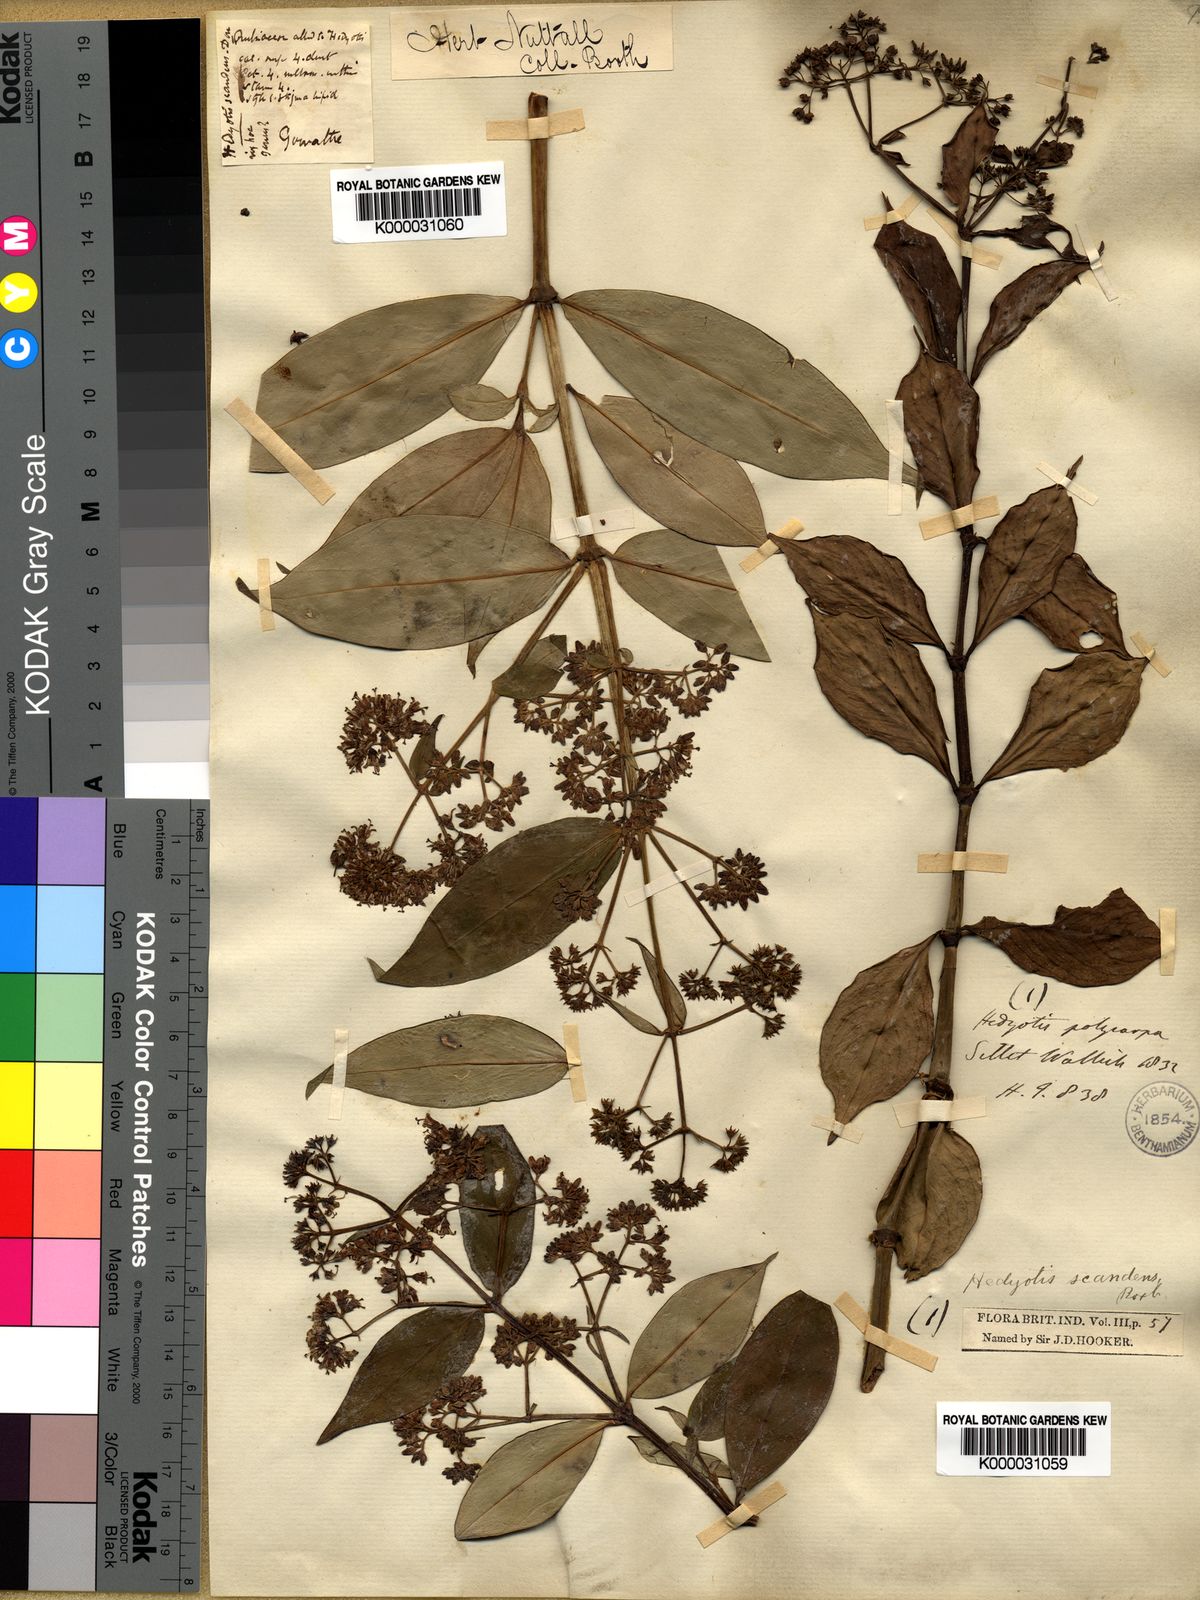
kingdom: Plantae
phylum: Tracheophyta
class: Magnoliopsida
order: Gentianales
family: Rubiaceae
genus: Dimetia
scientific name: Dimetia scandens
